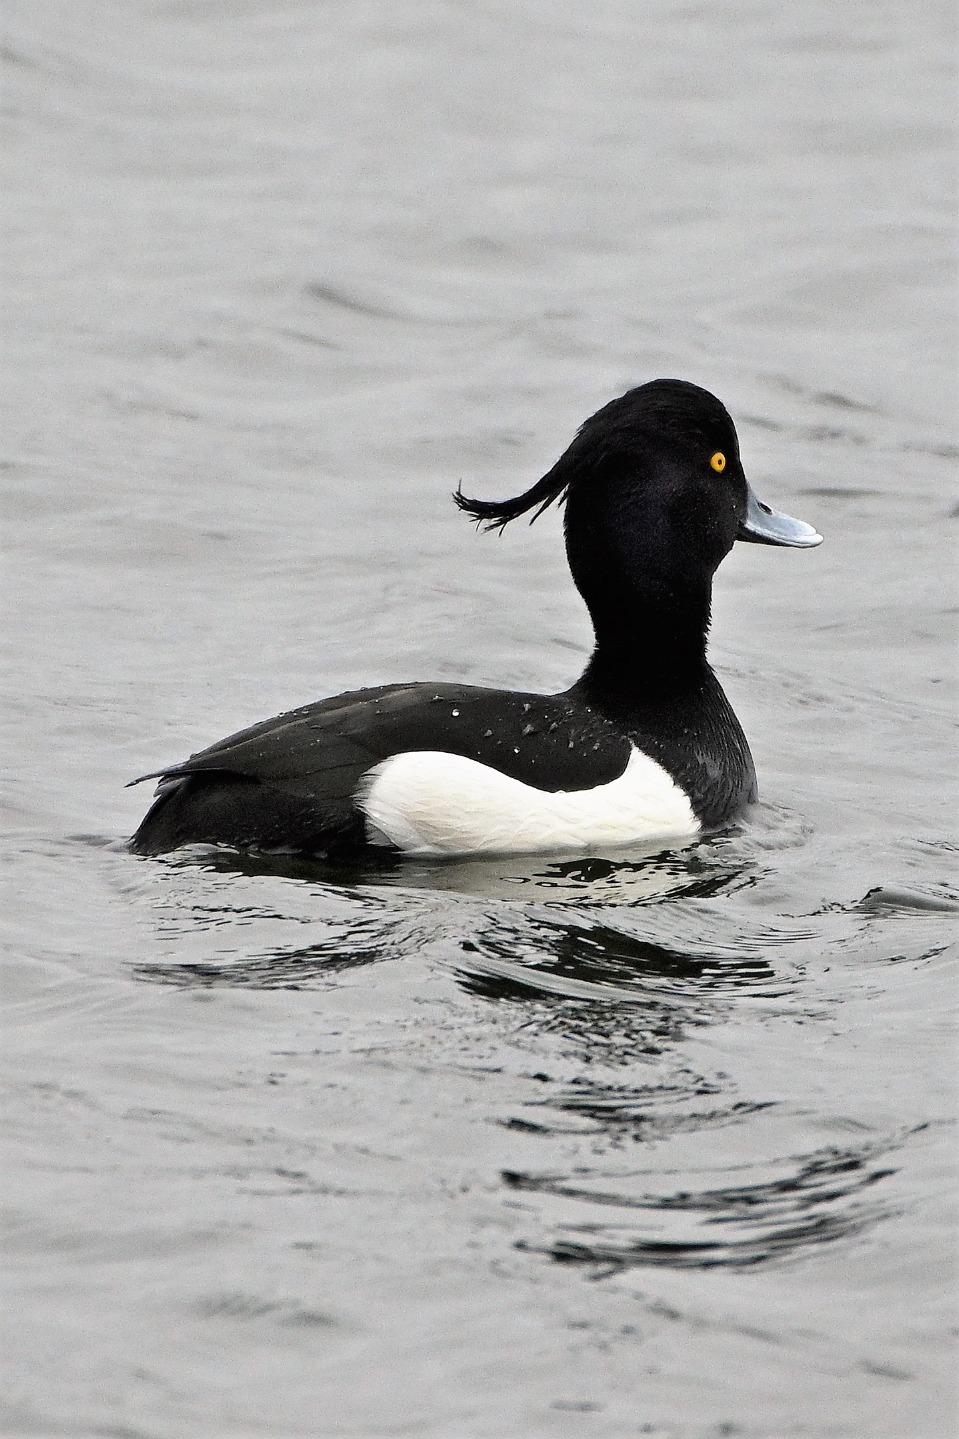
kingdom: Animalia
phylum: Chordata
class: Aves
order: Anseriformes
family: Anatidae
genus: Aythya
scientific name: Aythya fuligula
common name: Troldand
